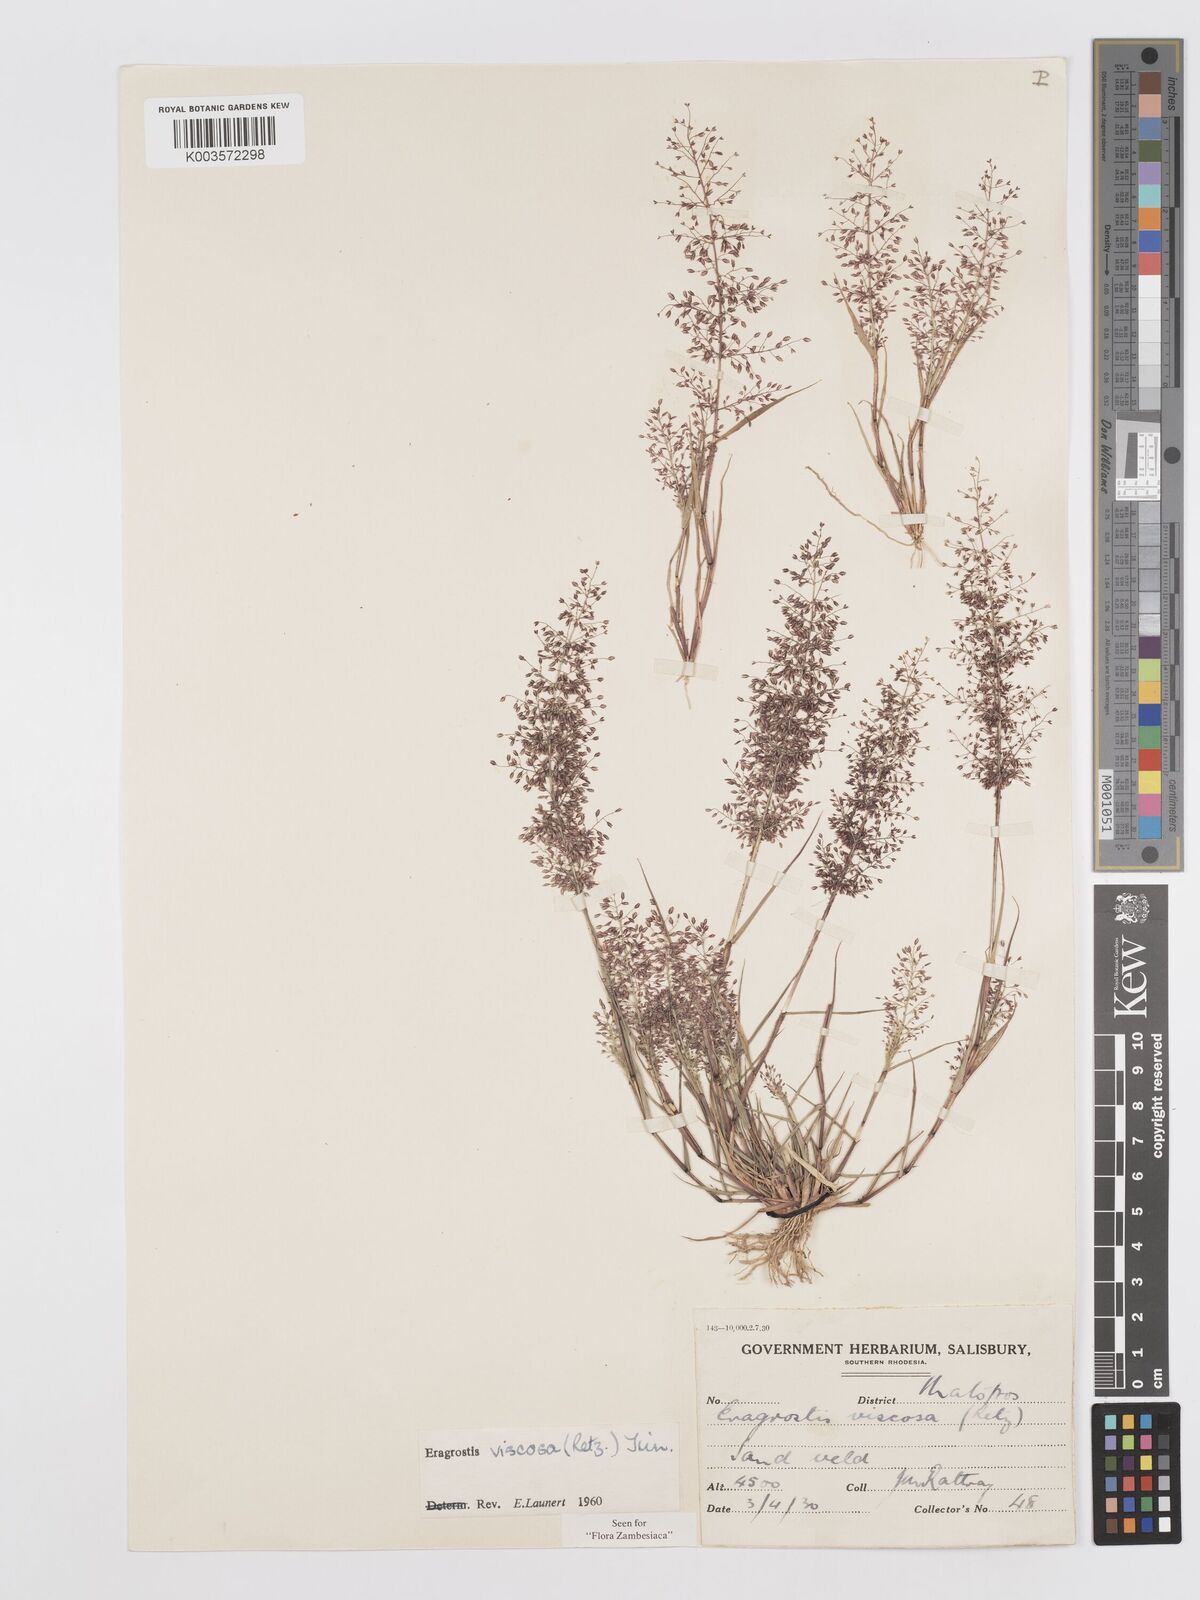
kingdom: Plantae
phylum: Tracheophyta
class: Liliopsida
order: Poales
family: Poaceae
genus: Eragrostis
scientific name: Eragrostis
